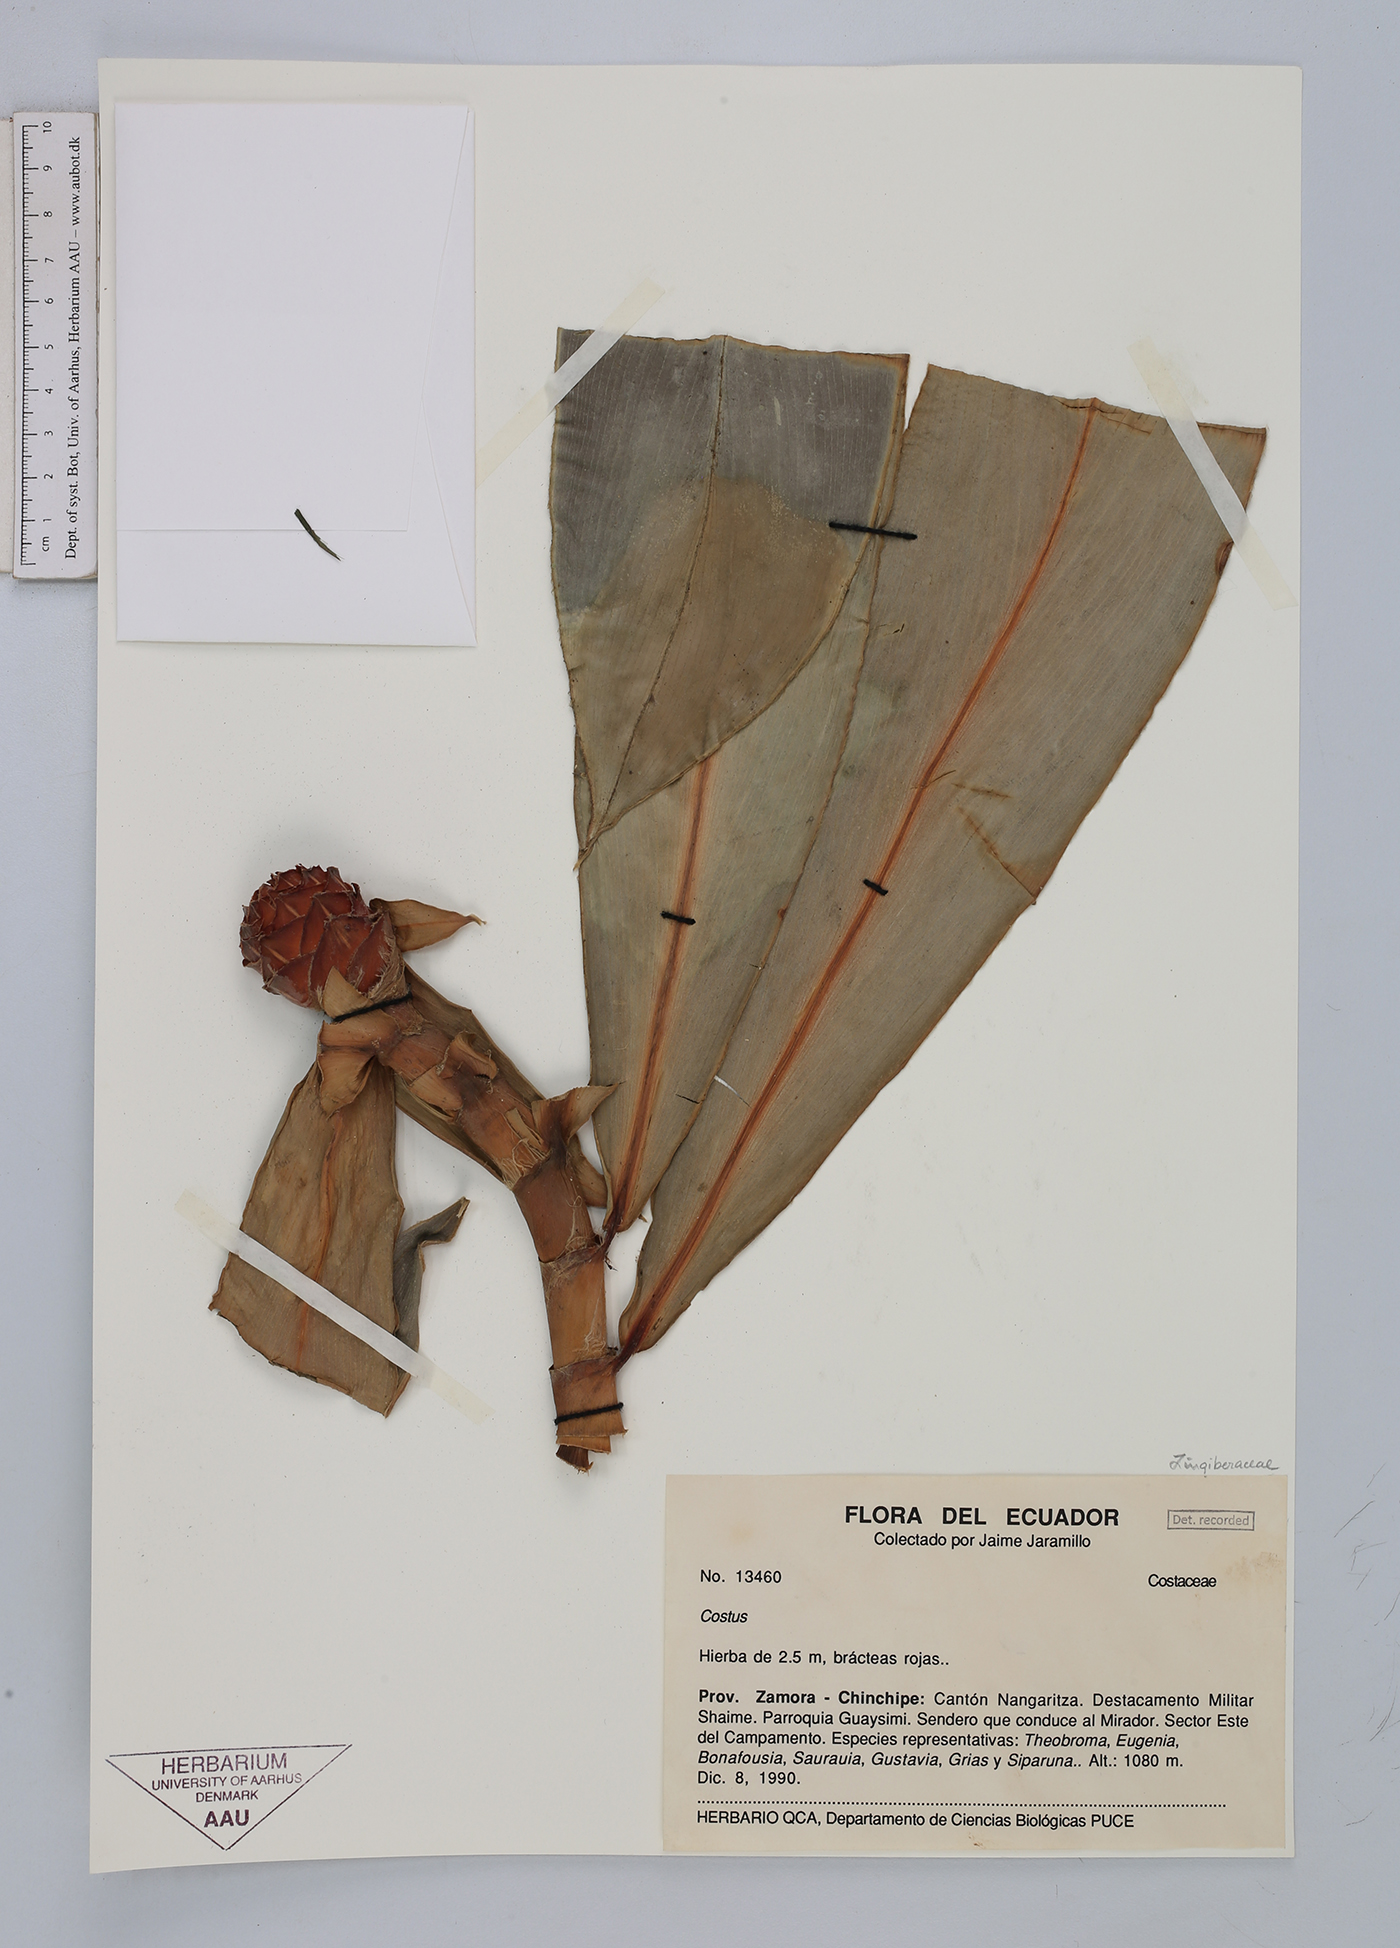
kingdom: Plantae
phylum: Tracheophyta
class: Liliopsida
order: Zingiberales
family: Costaceae
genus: Costus
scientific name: Costus scaber
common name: Spiral head ginger
